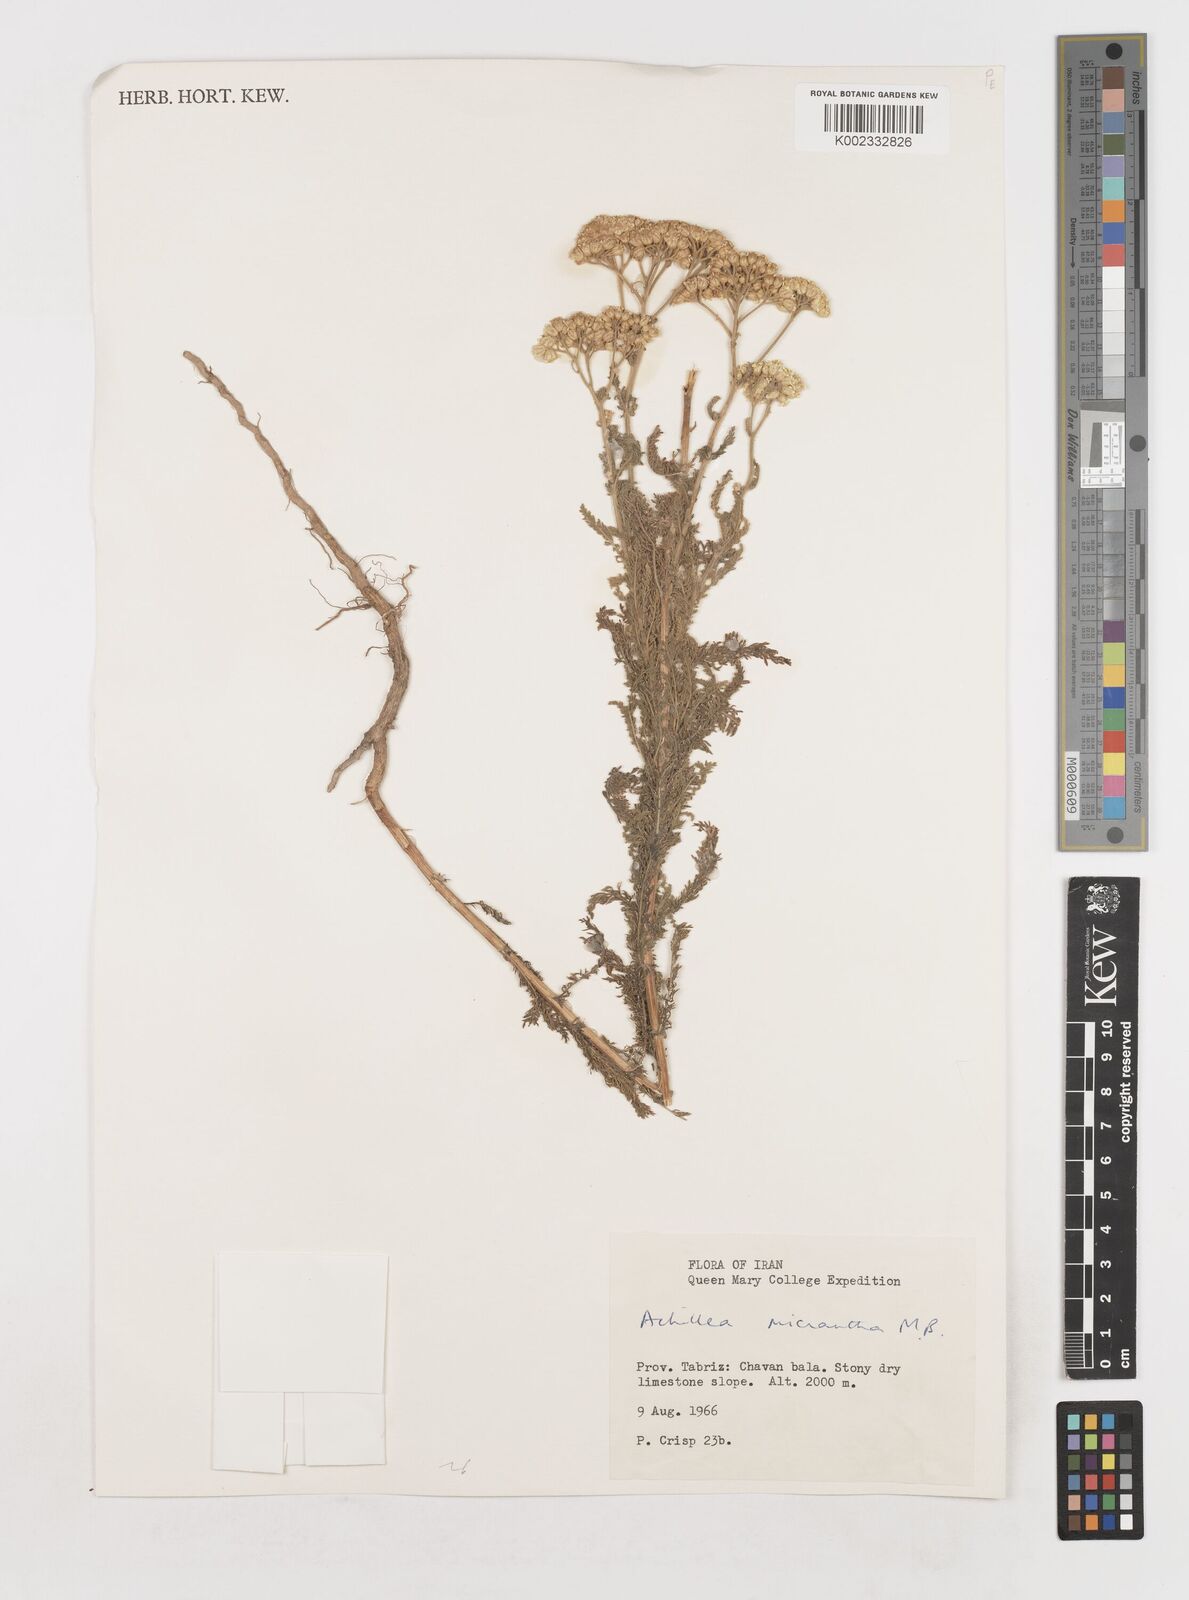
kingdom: Plantae
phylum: Tracheophyta
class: Magnoliopsida
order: Asterales
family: Asteraceae
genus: Achillea
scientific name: Achillea arabica
